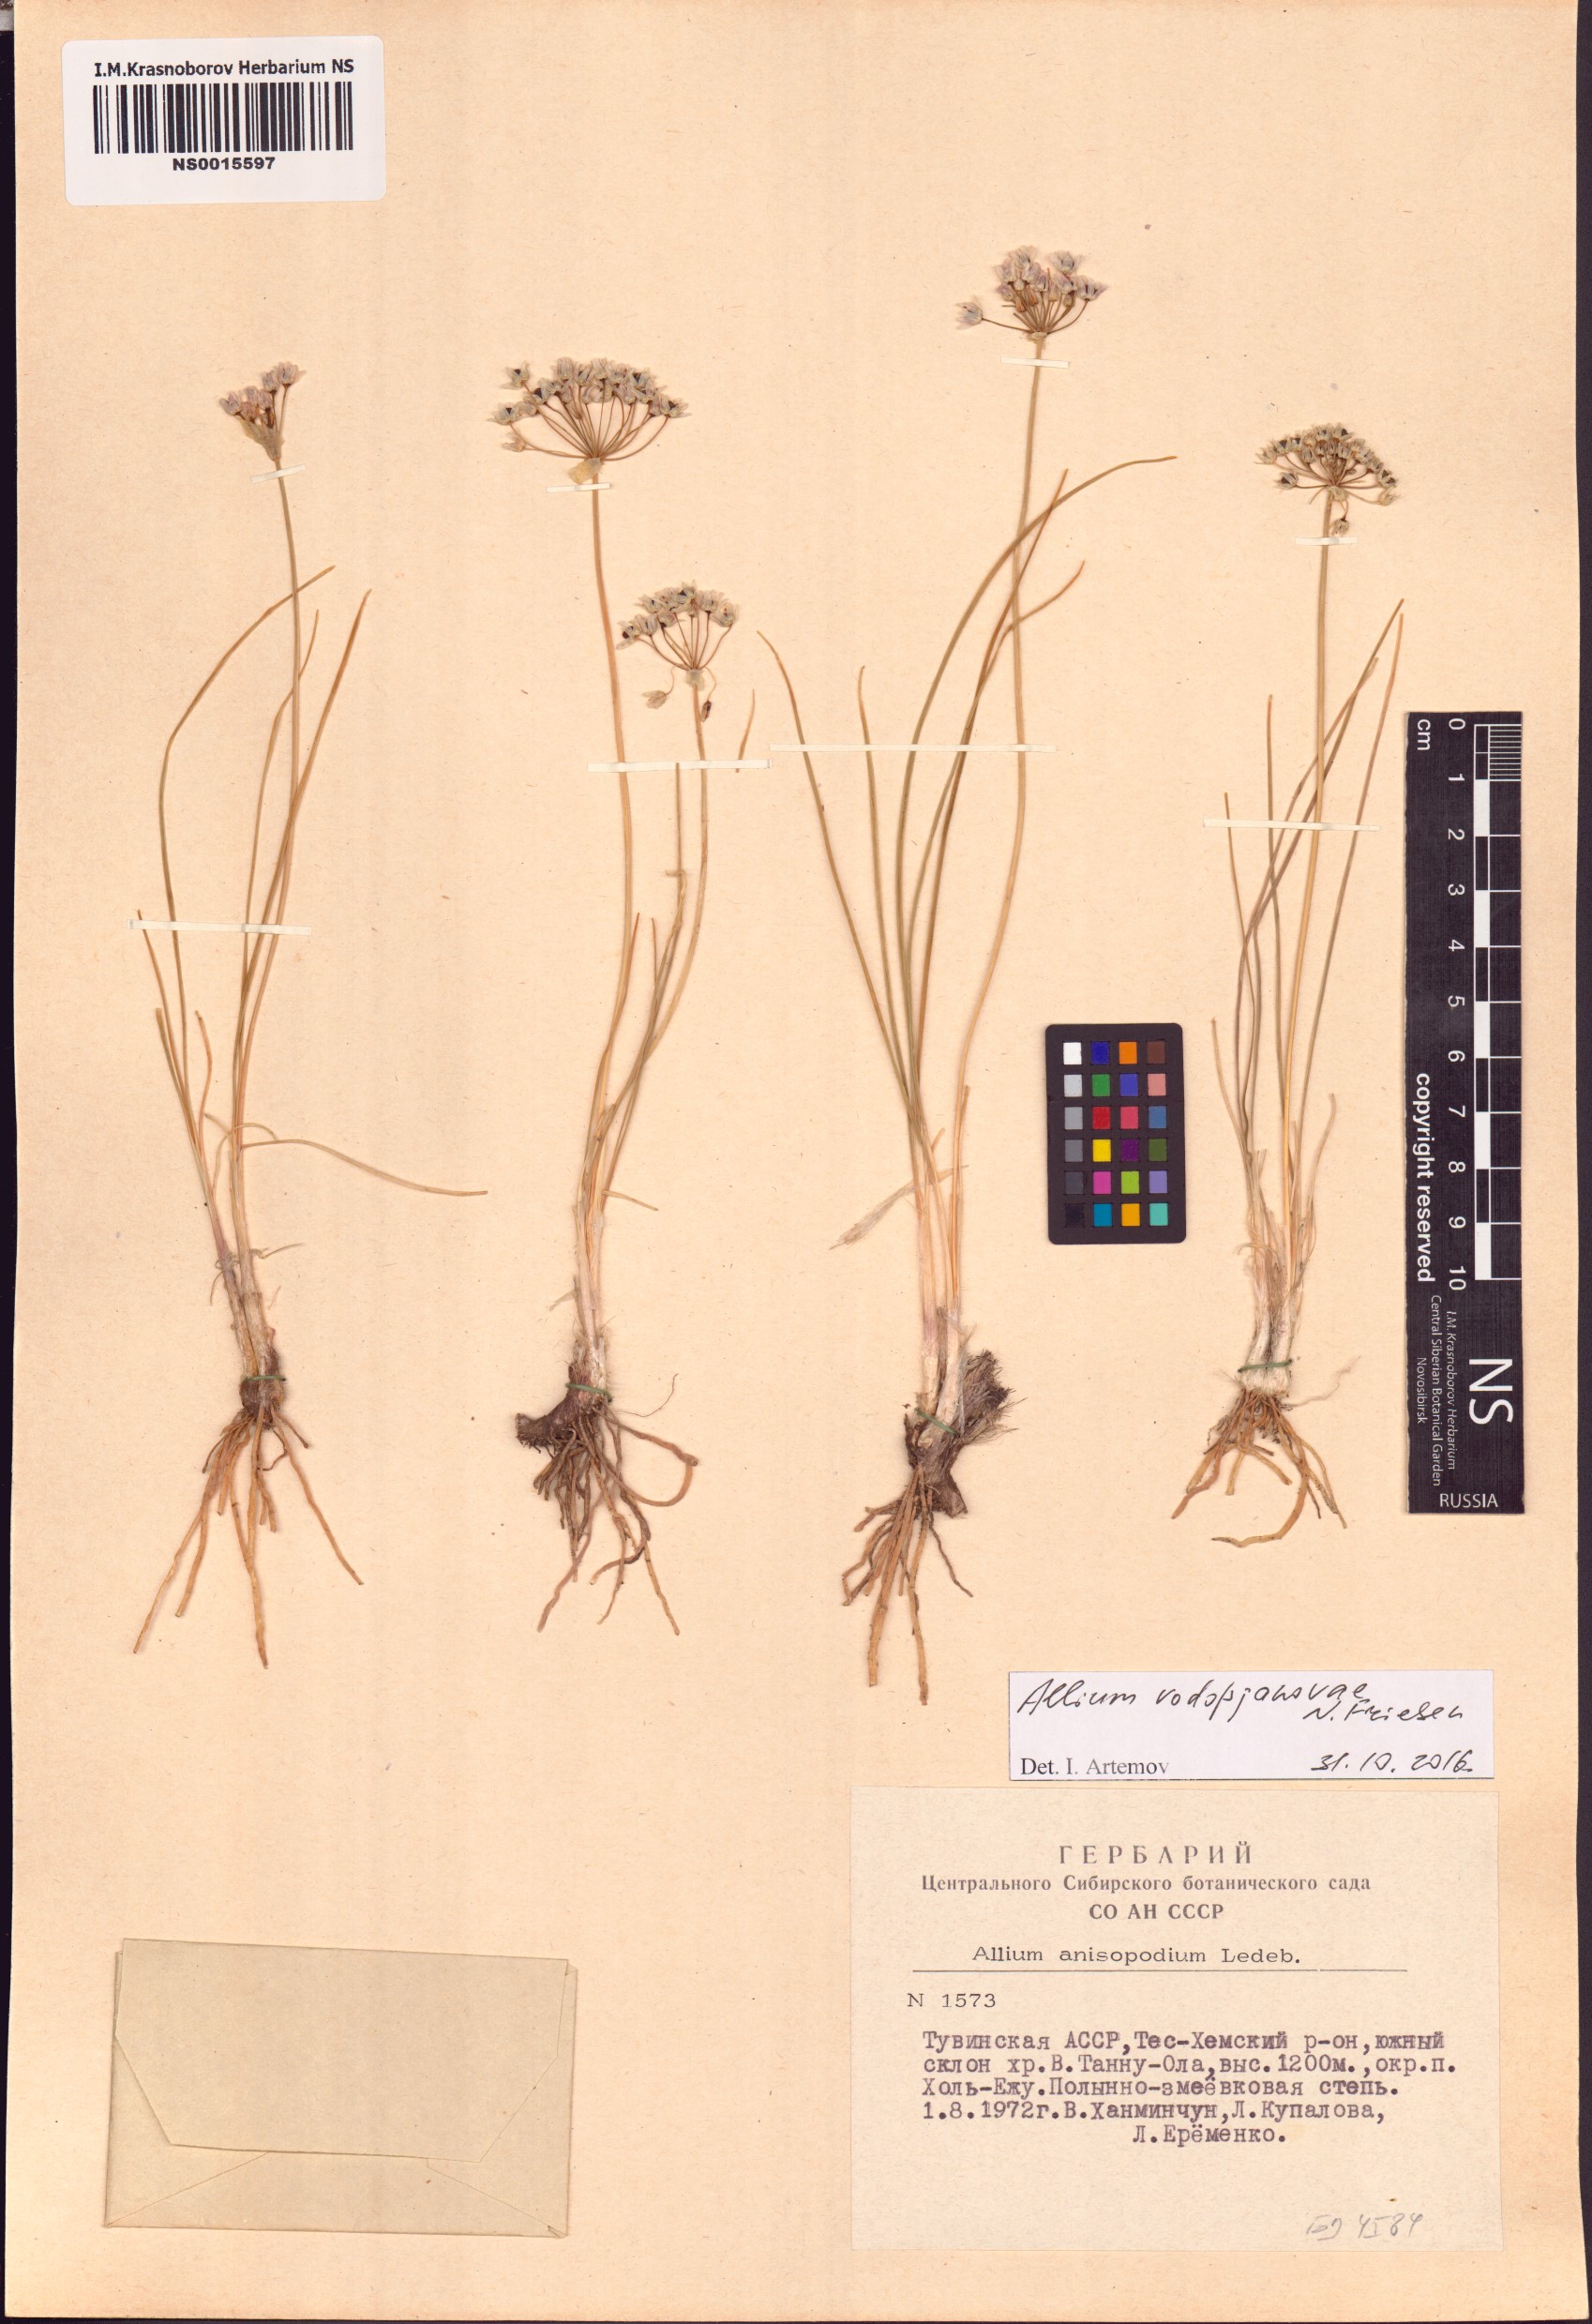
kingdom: Plantae
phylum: Tracheophyta
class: Liliopsida
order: Asparagales
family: Amaryllidaceae
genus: Allium
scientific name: Allium vodopjanovae
